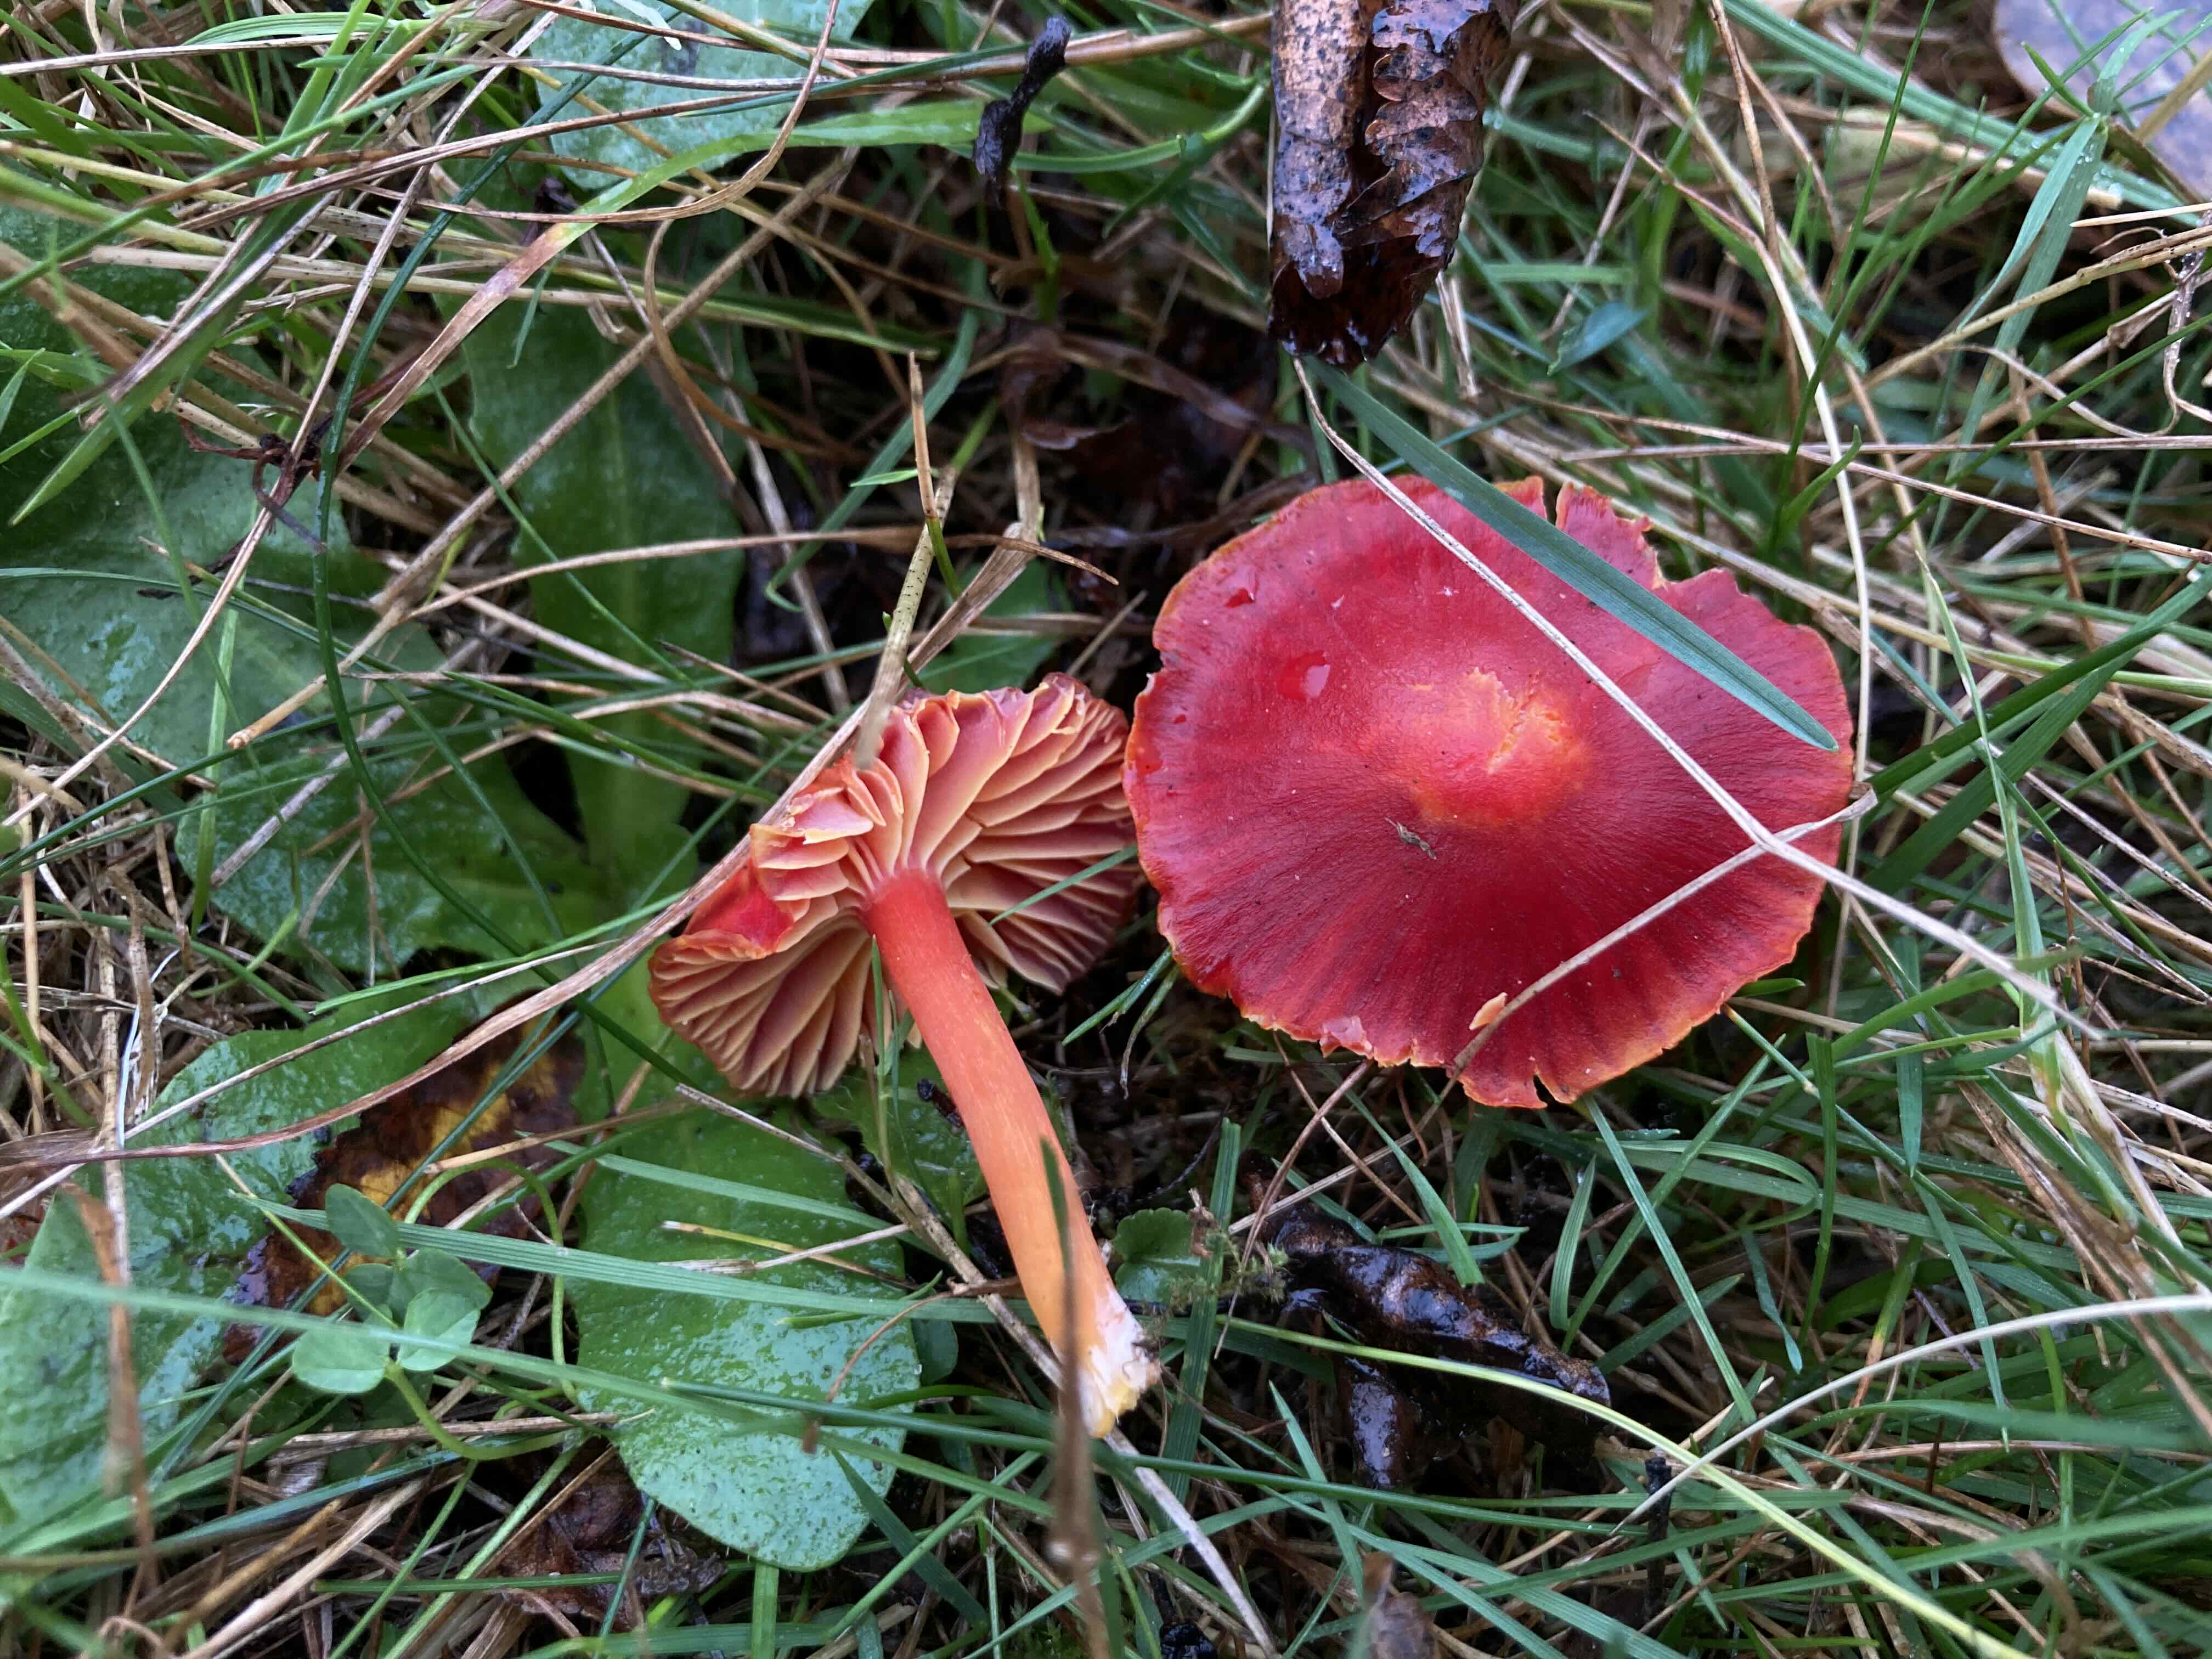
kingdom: Fungi
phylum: Basidiomycota
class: Agaricomycetes
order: Agaricales
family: Hygrophoraceae
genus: Hygrocybe
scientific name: Hygrocybe coccinea
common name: cinnober-vokshat
